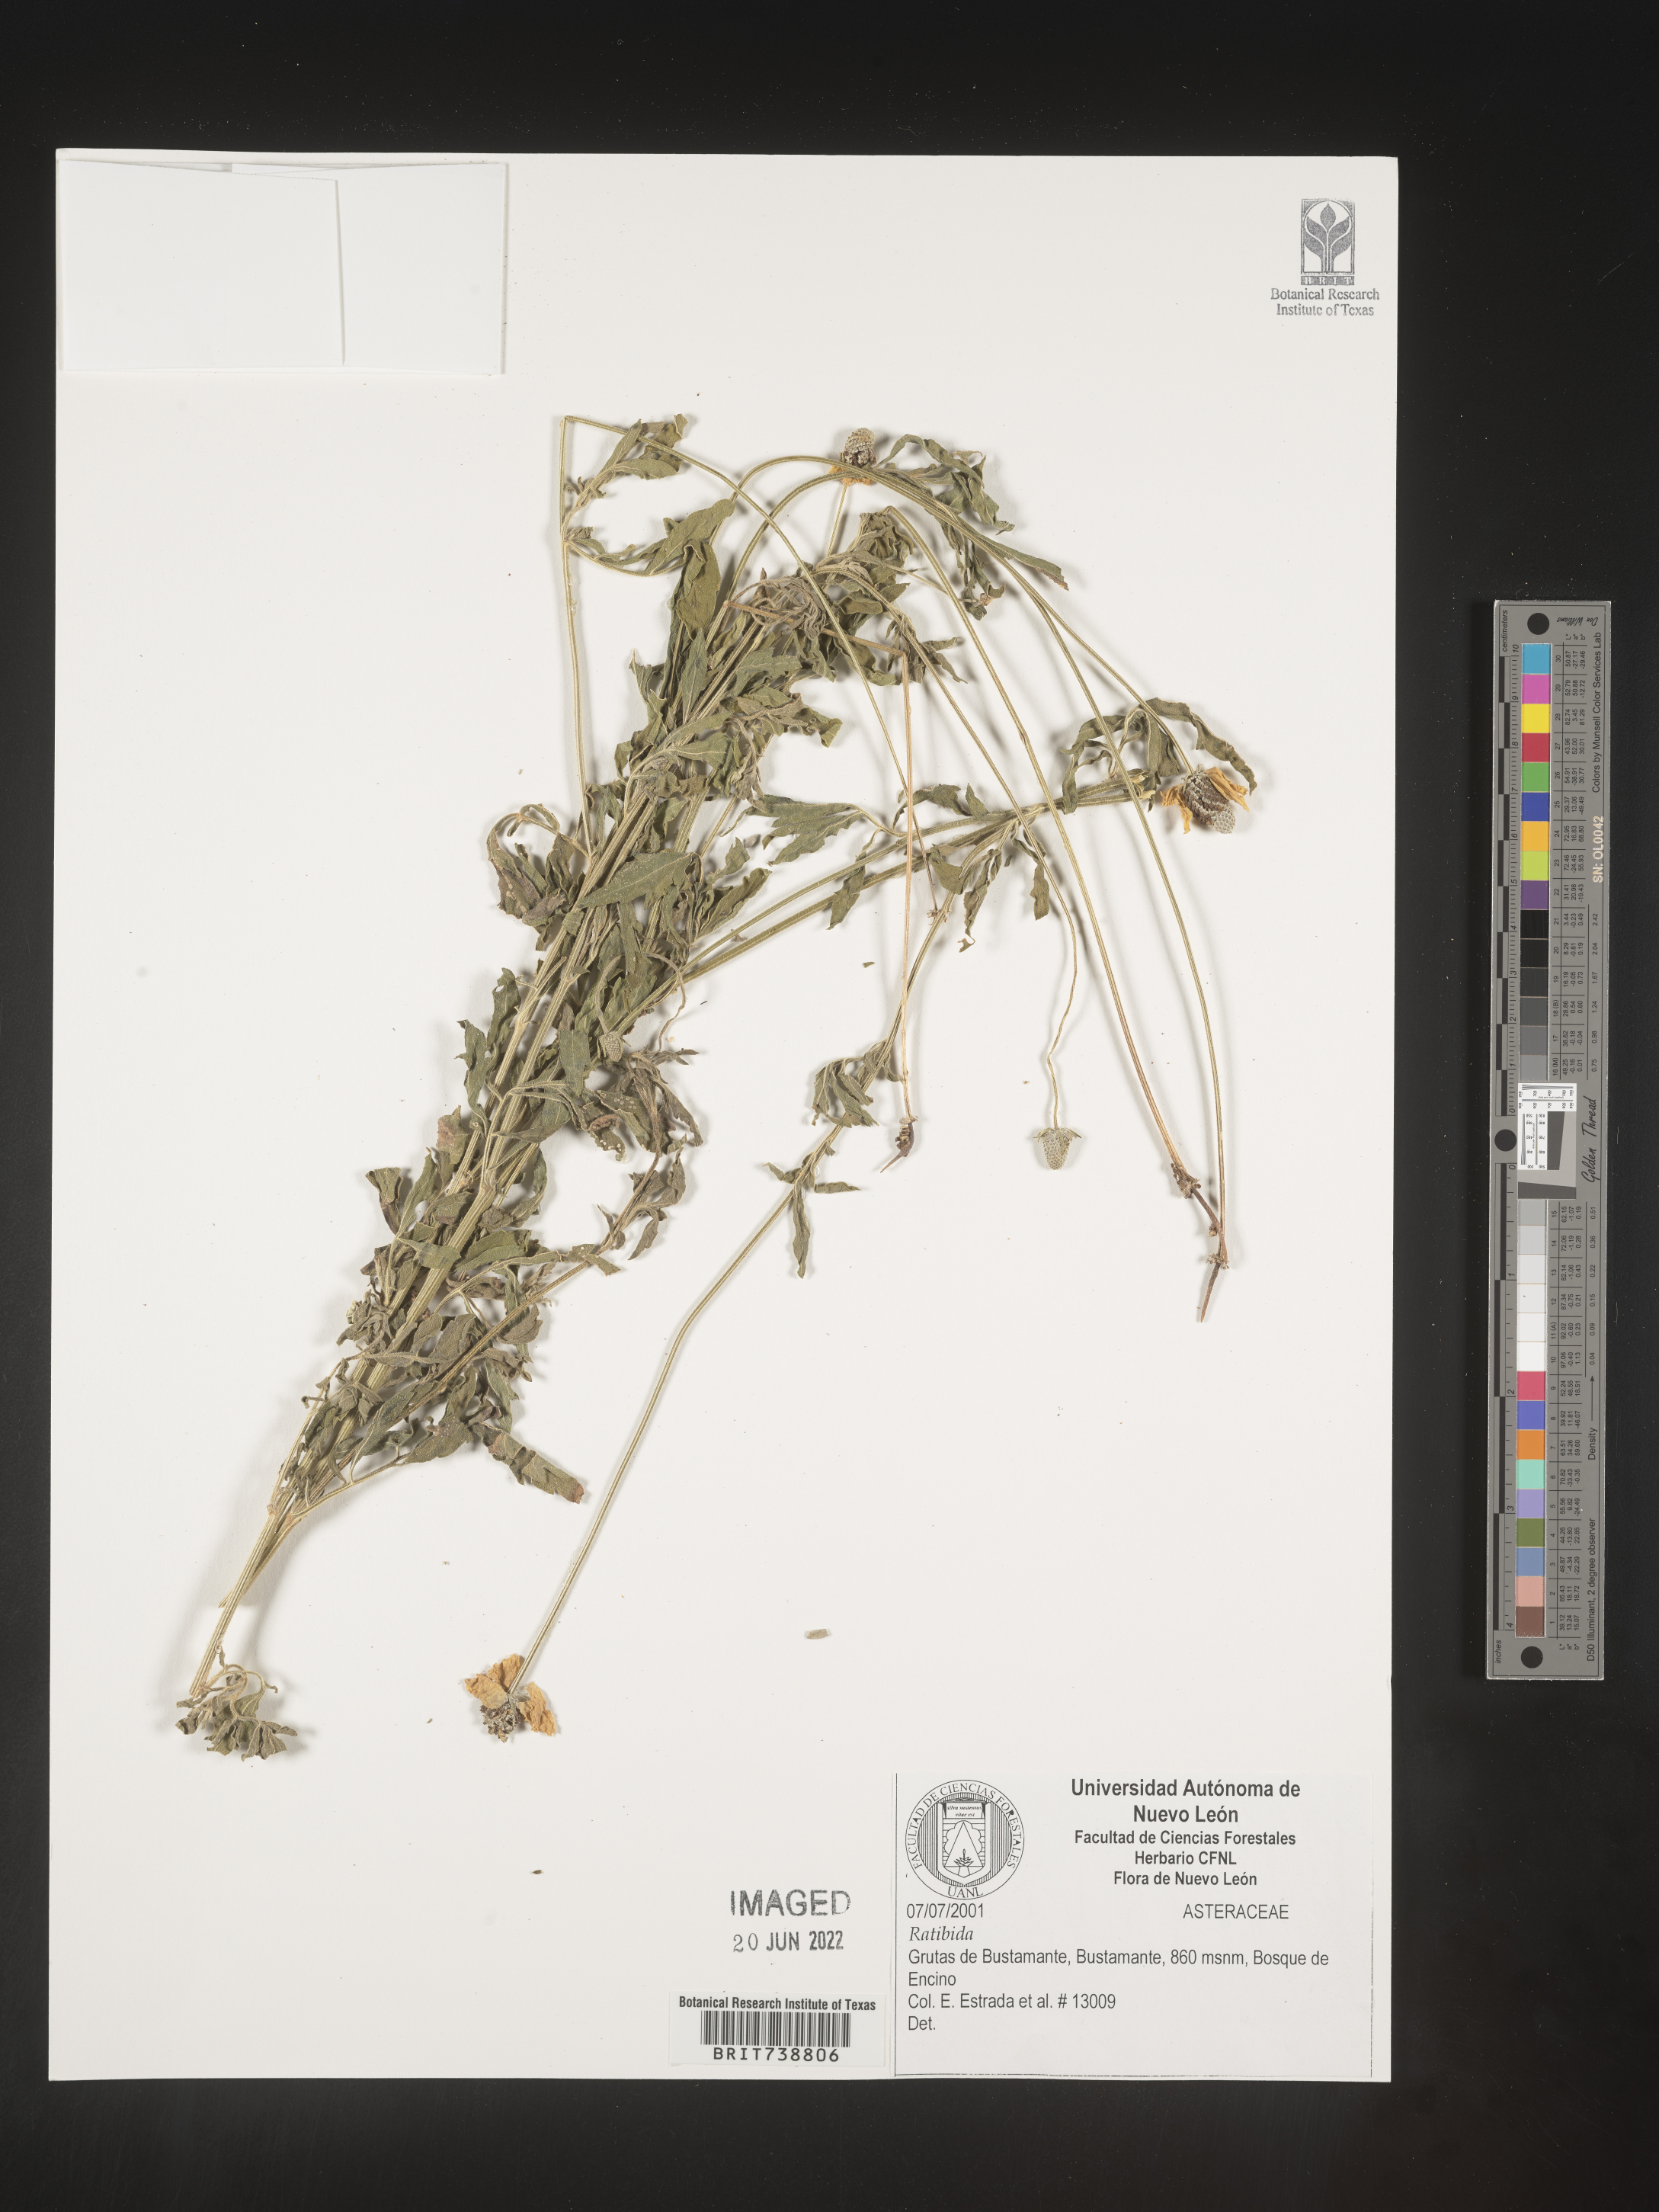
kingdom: Plantae
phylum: Tracheophyta
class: Magnoliopsida
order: Asterales
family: Asteraceae
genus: Ratibida
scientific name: Ratibida
